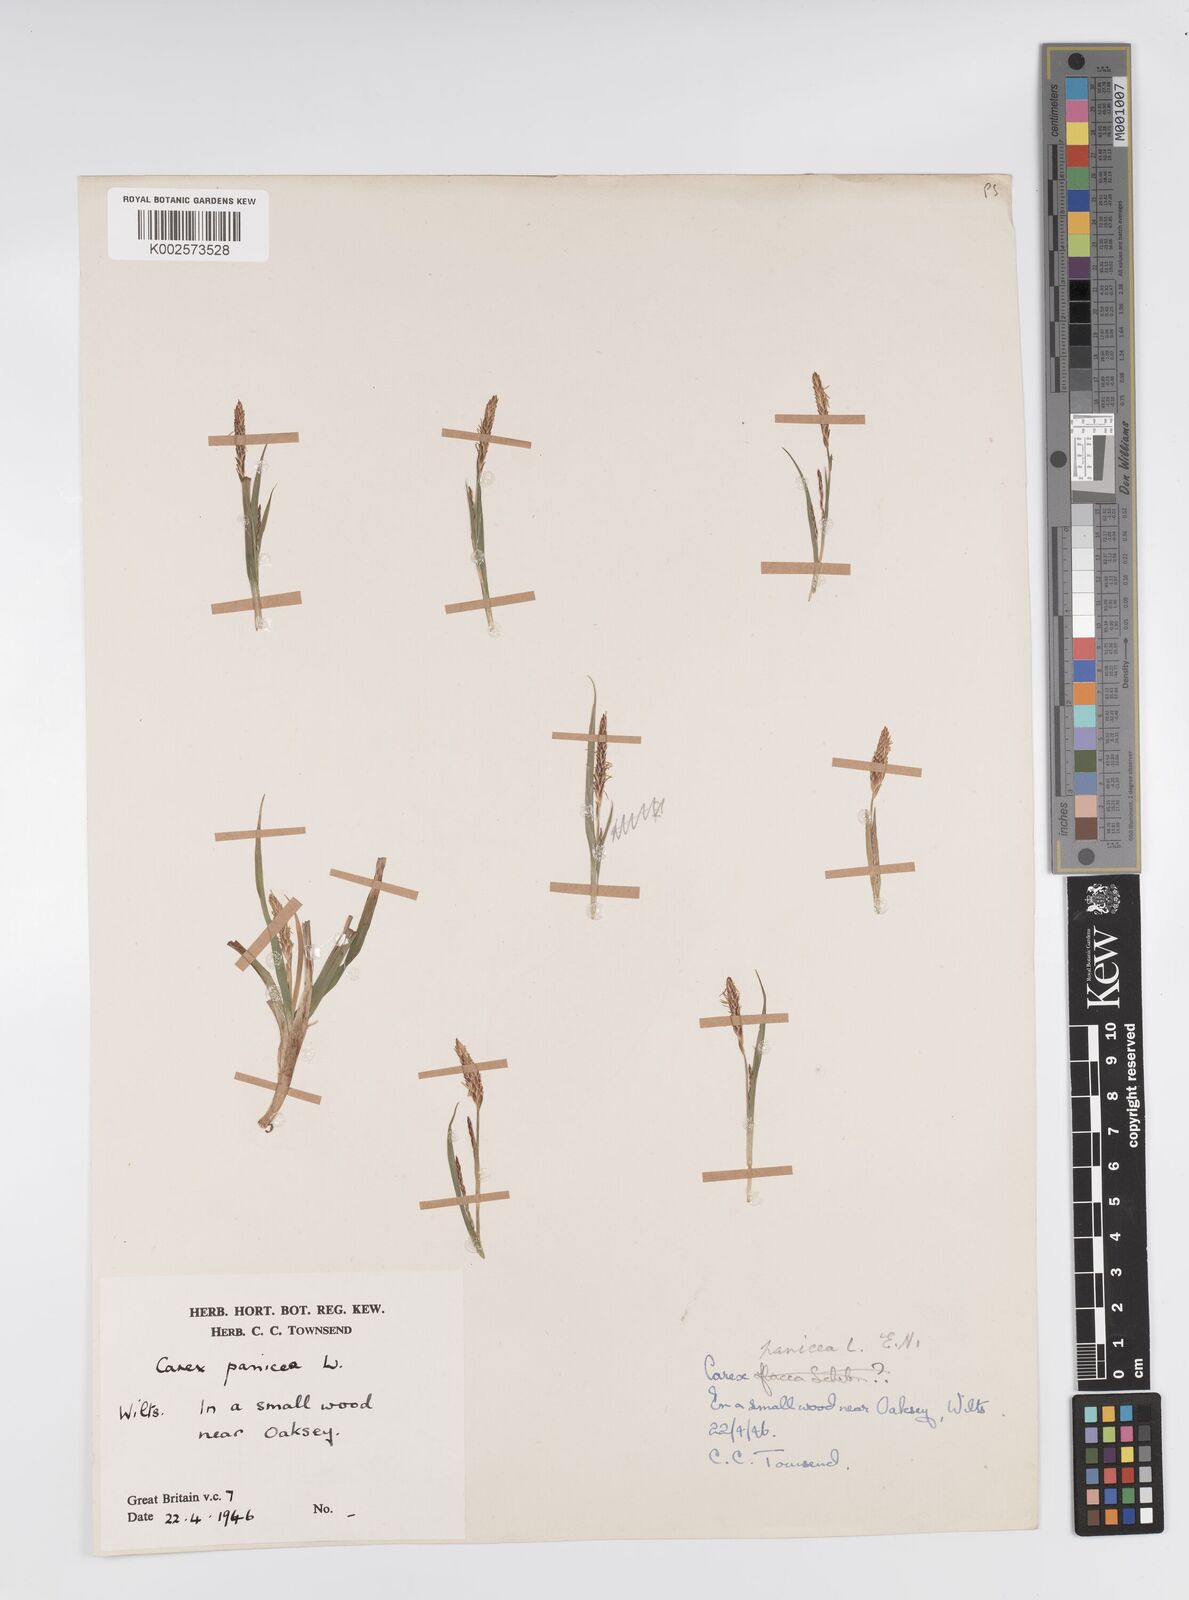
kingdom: Plantae
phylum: Tracheophyta
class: Liliopsida
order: Poales
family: Cyperaceae
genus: Carex
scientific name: Carex panicea
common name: Carnation sedge
